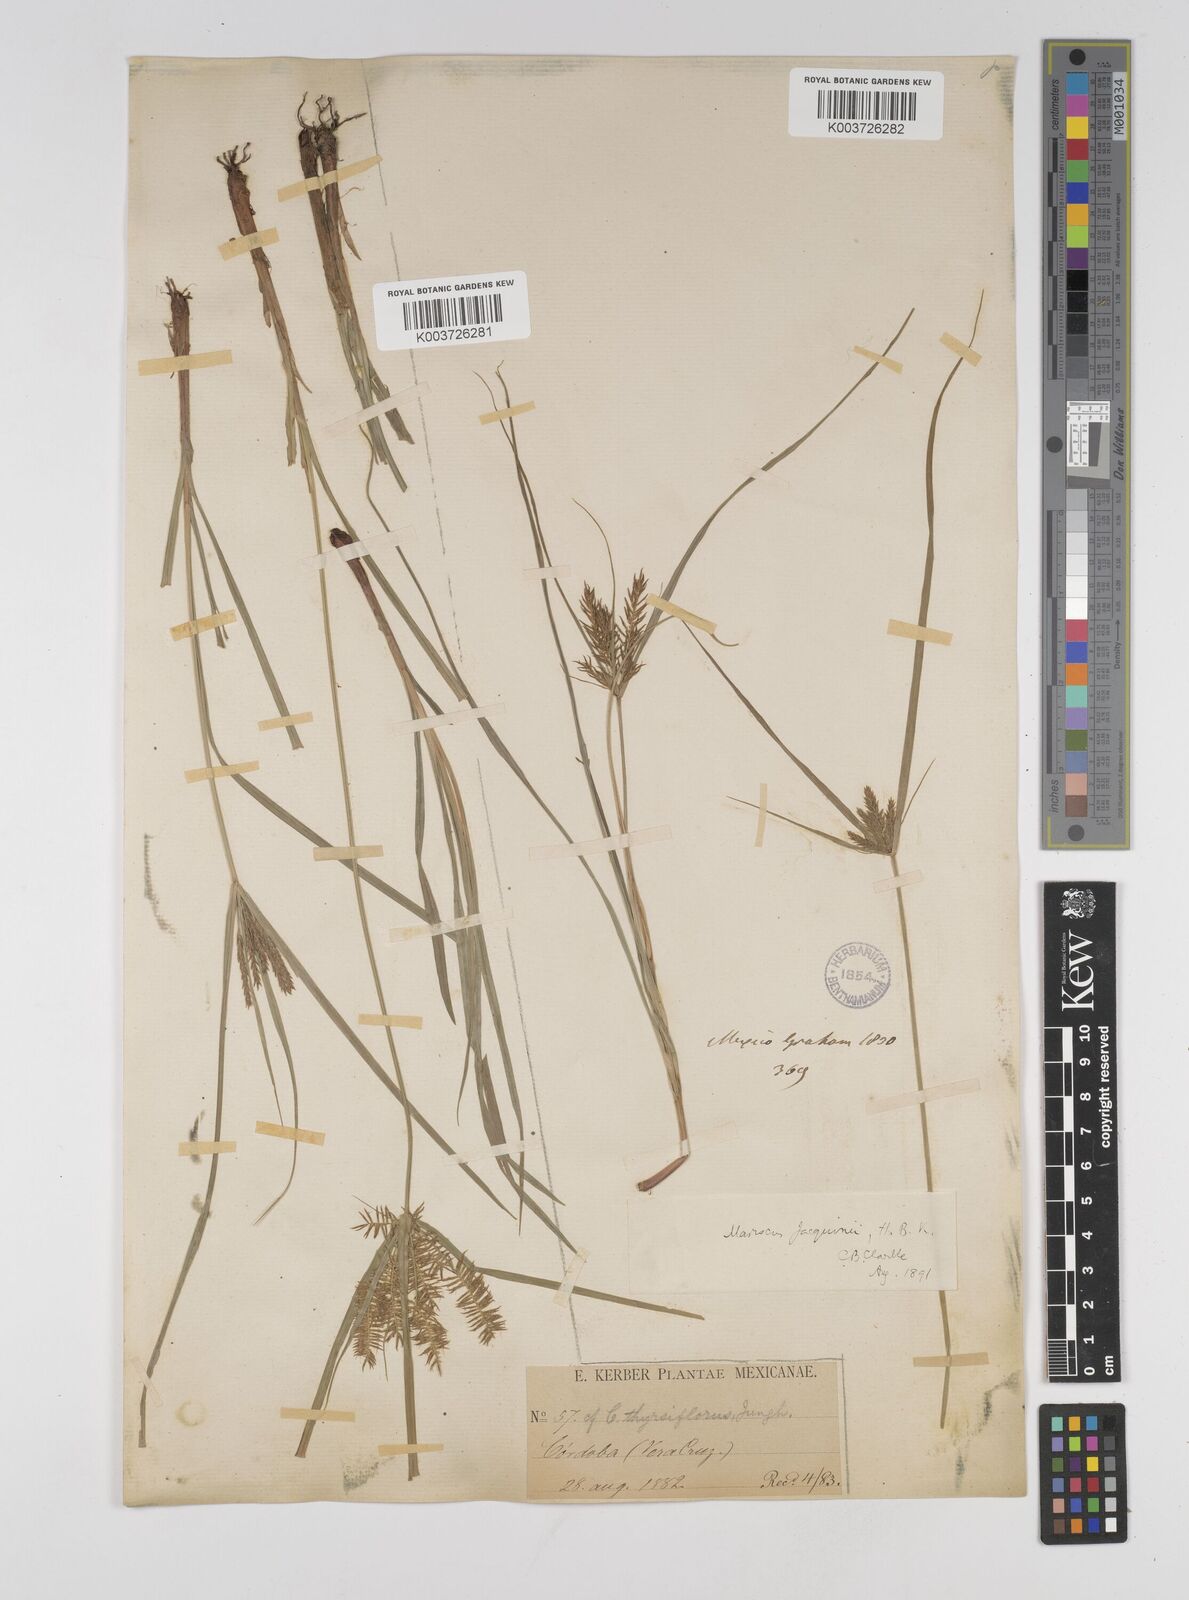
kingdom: Plantae
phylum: Tracheophyta
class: Liliopsida
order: Poales
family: Cyperaceae
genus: Cyperus
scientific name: Cyperus hermaphroditus
